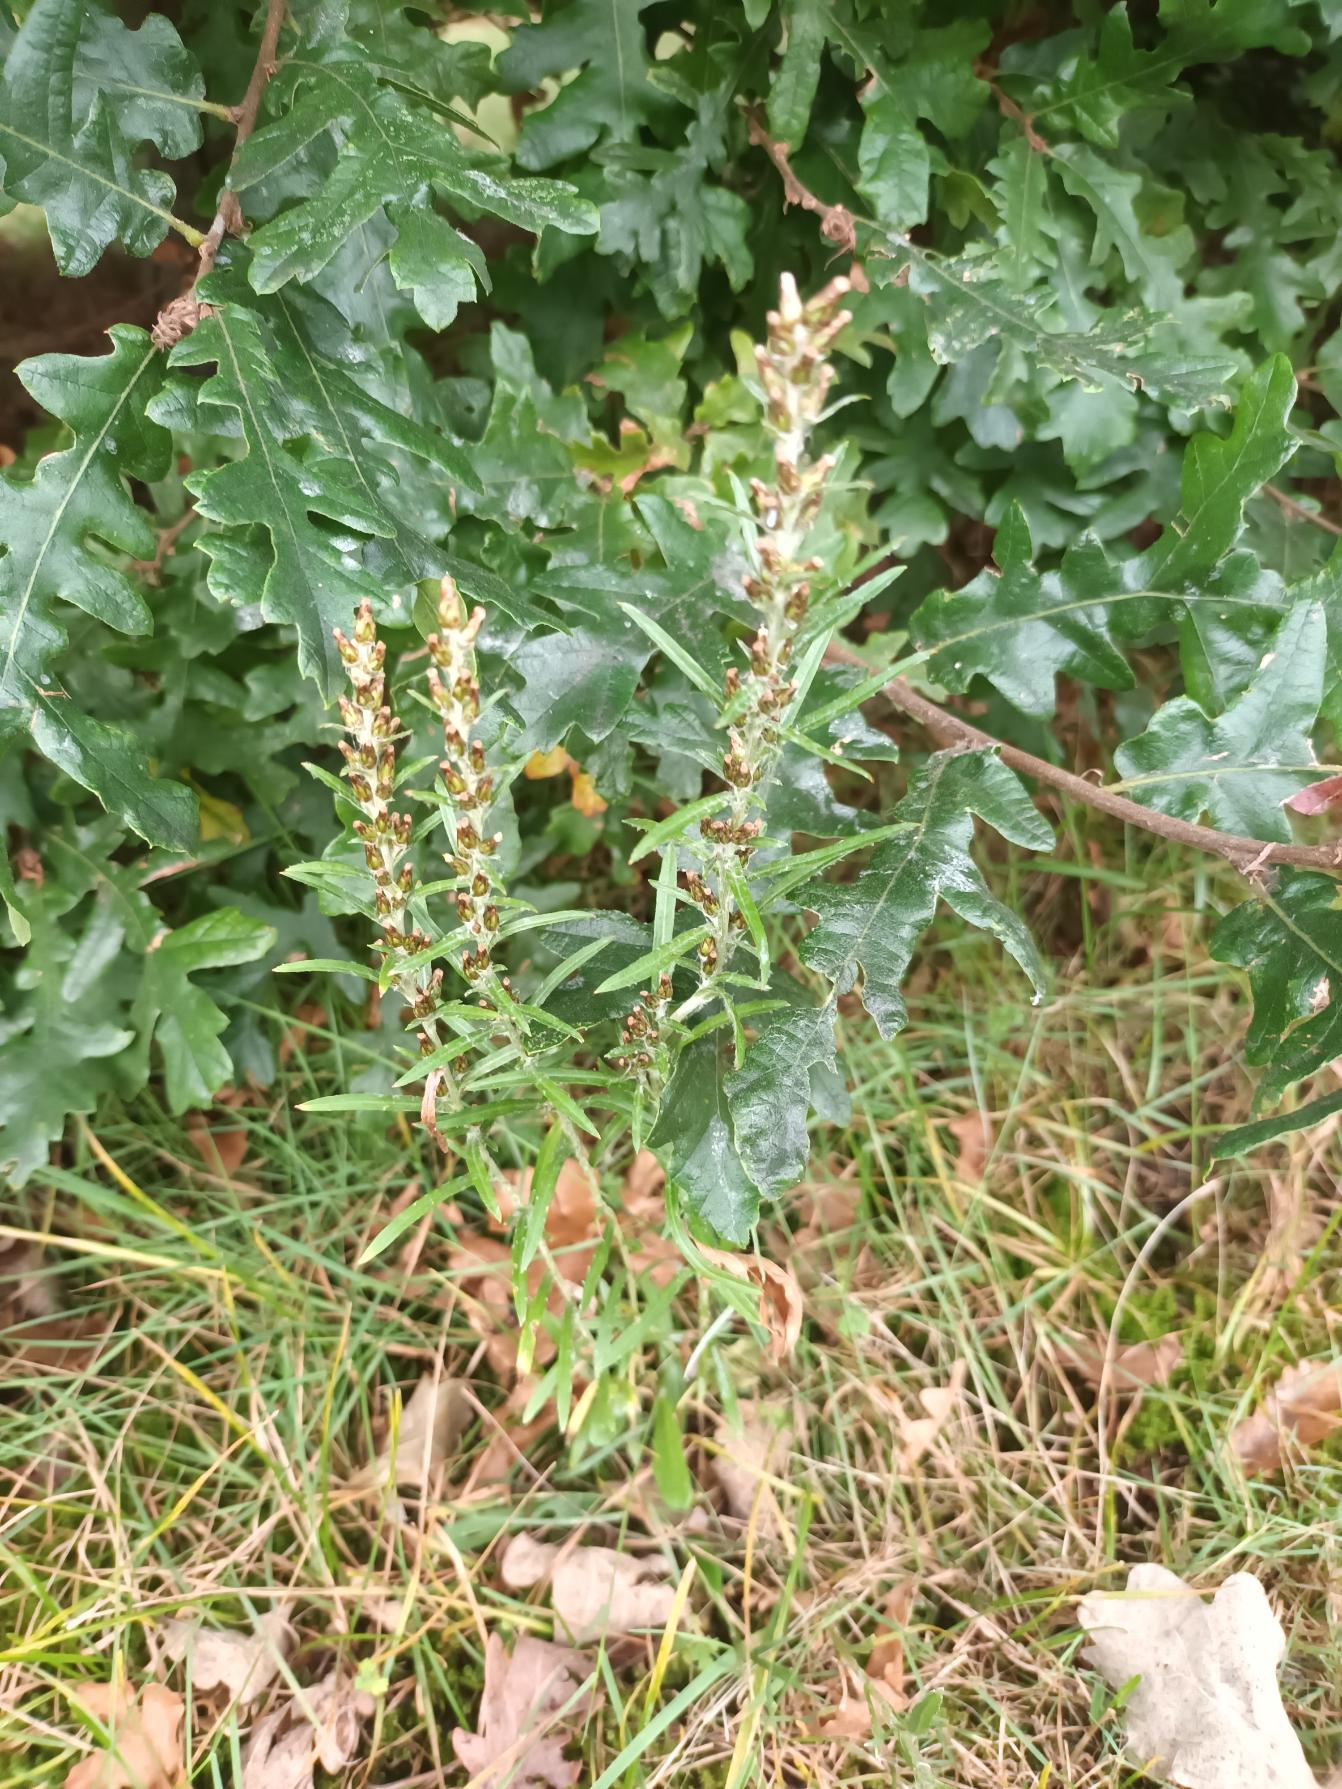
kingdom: Plantae
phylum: Tracheophyta
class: Magnoliopsida
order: Asterales
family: Asteraceae
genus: Omalotheca
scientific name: Omalotheca sylvatica
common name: Rank evighedsblomst
